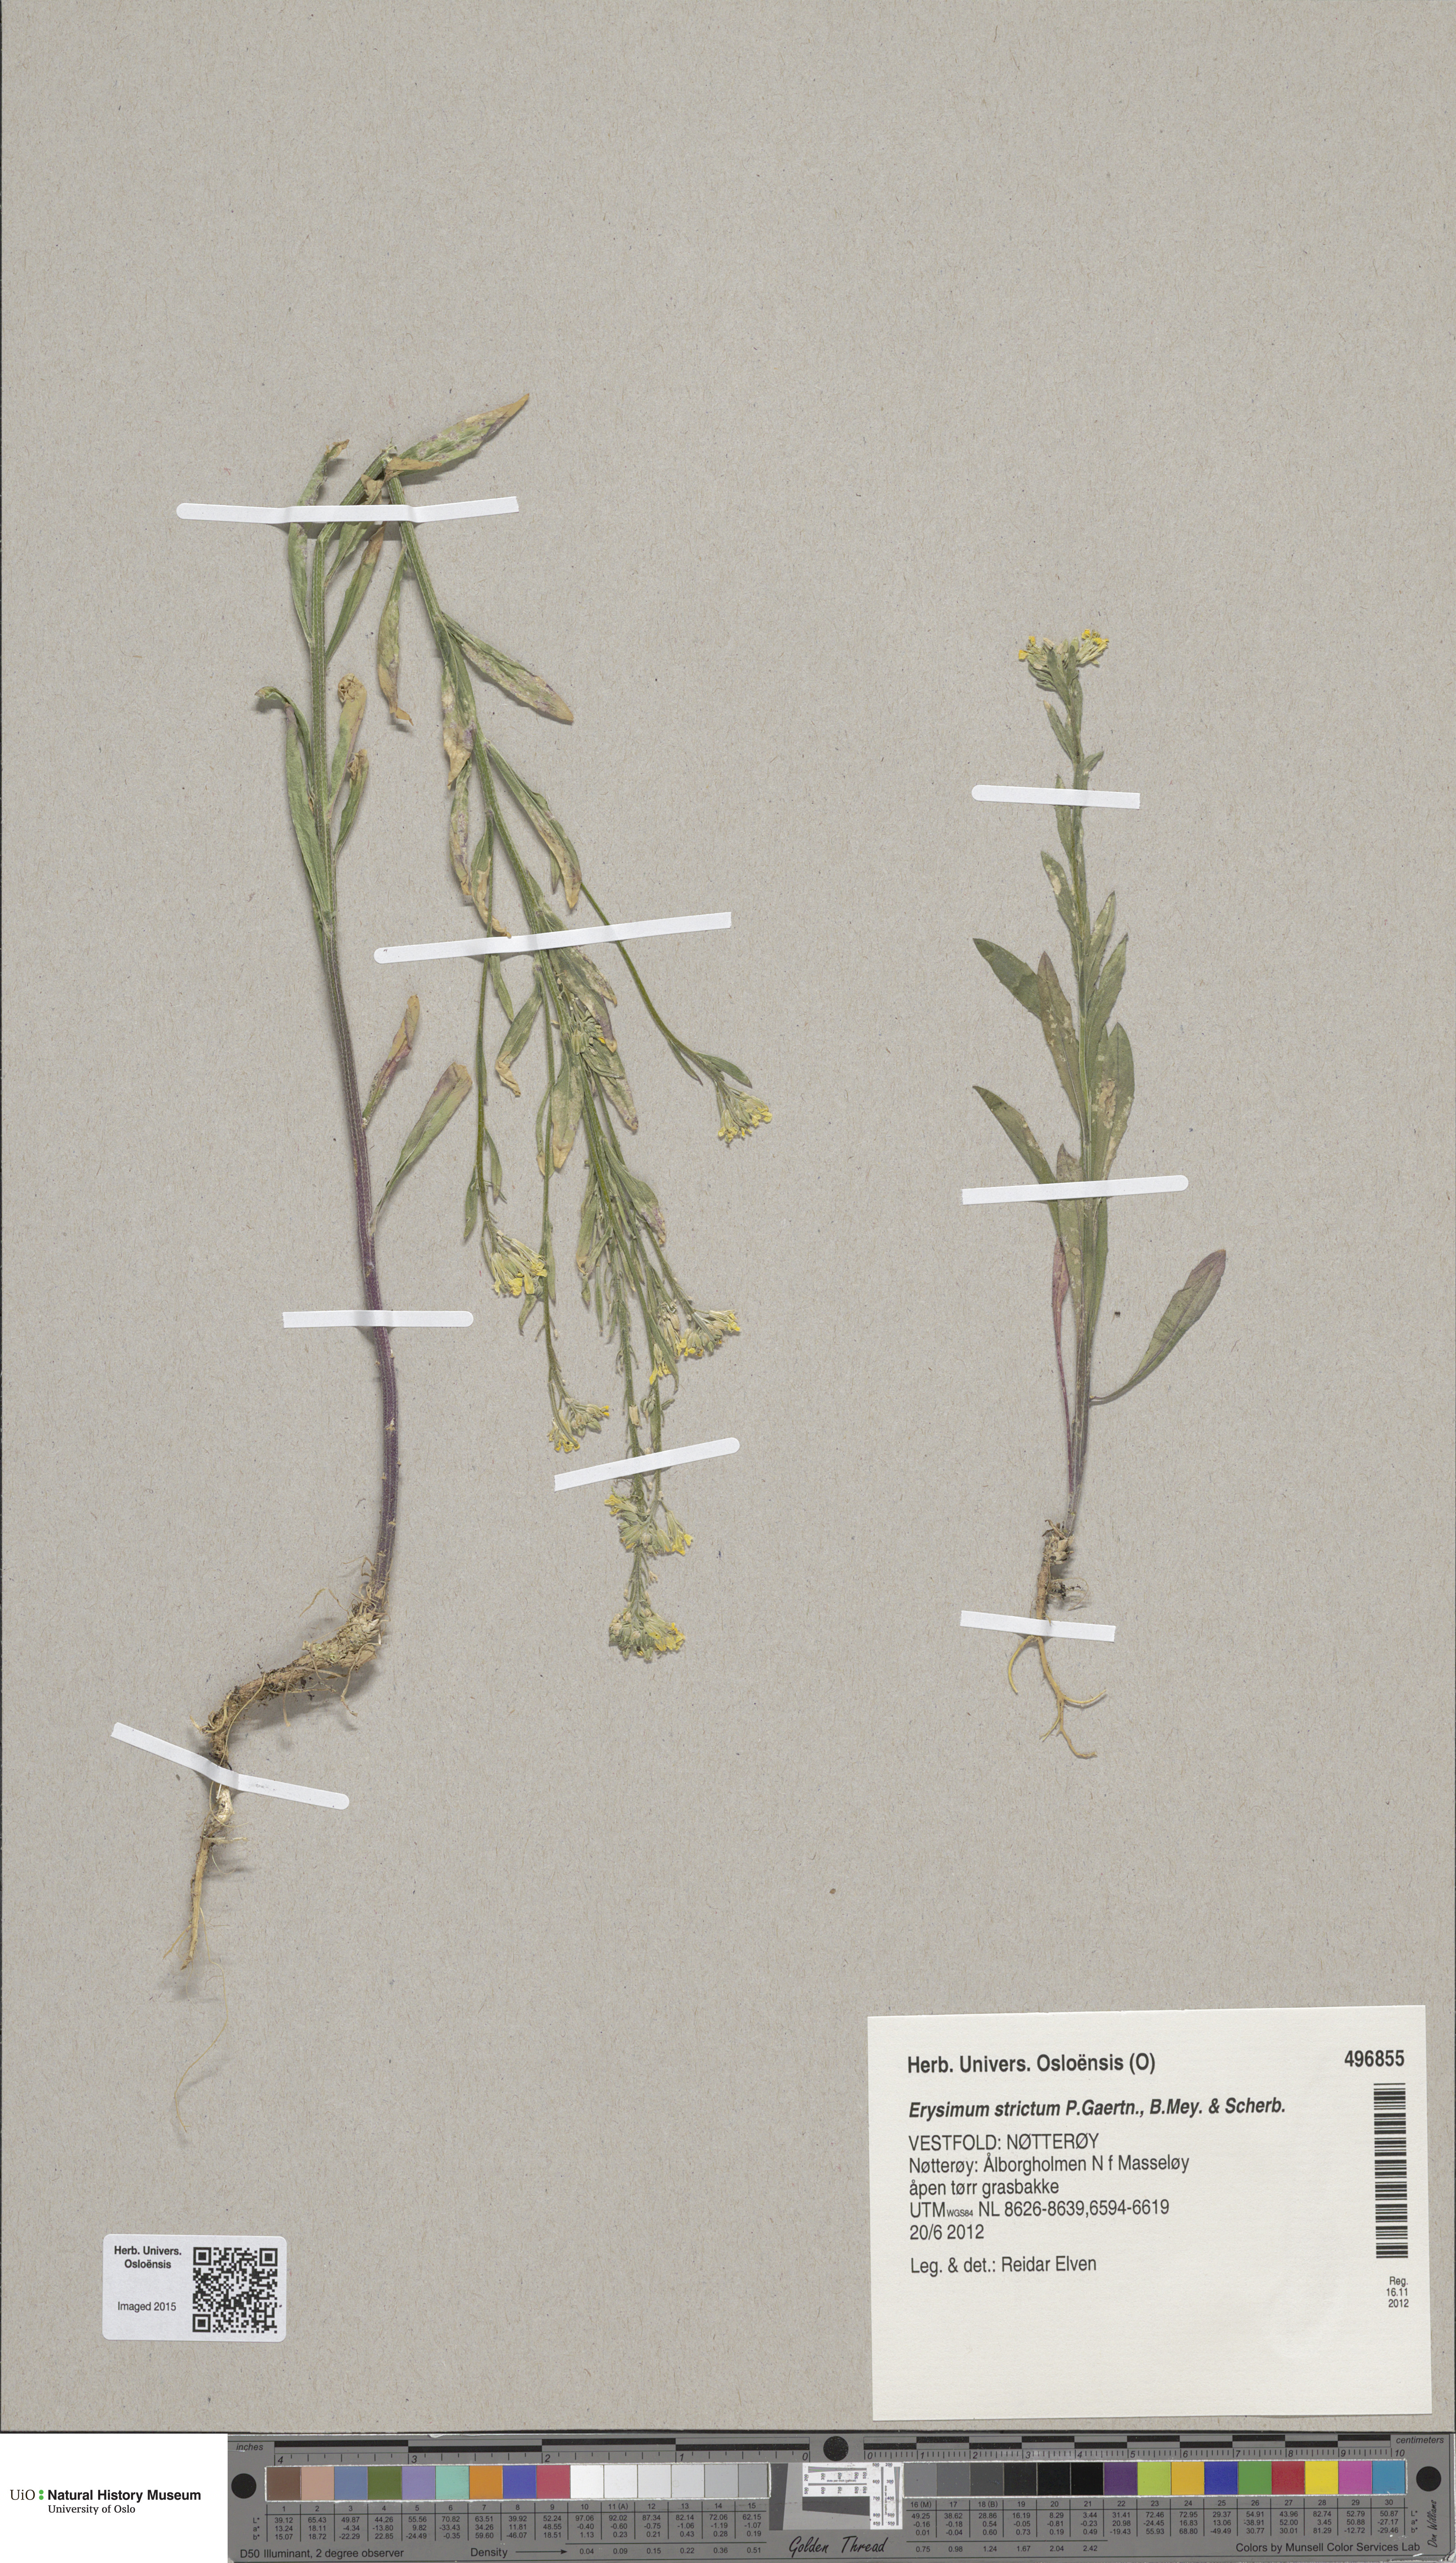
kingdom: Plantae
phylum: Tracheophyta
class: Magnoliopsida
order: Brassicales
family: Brassicaceae
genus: Erysimum
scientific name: Erysimum virgatum
